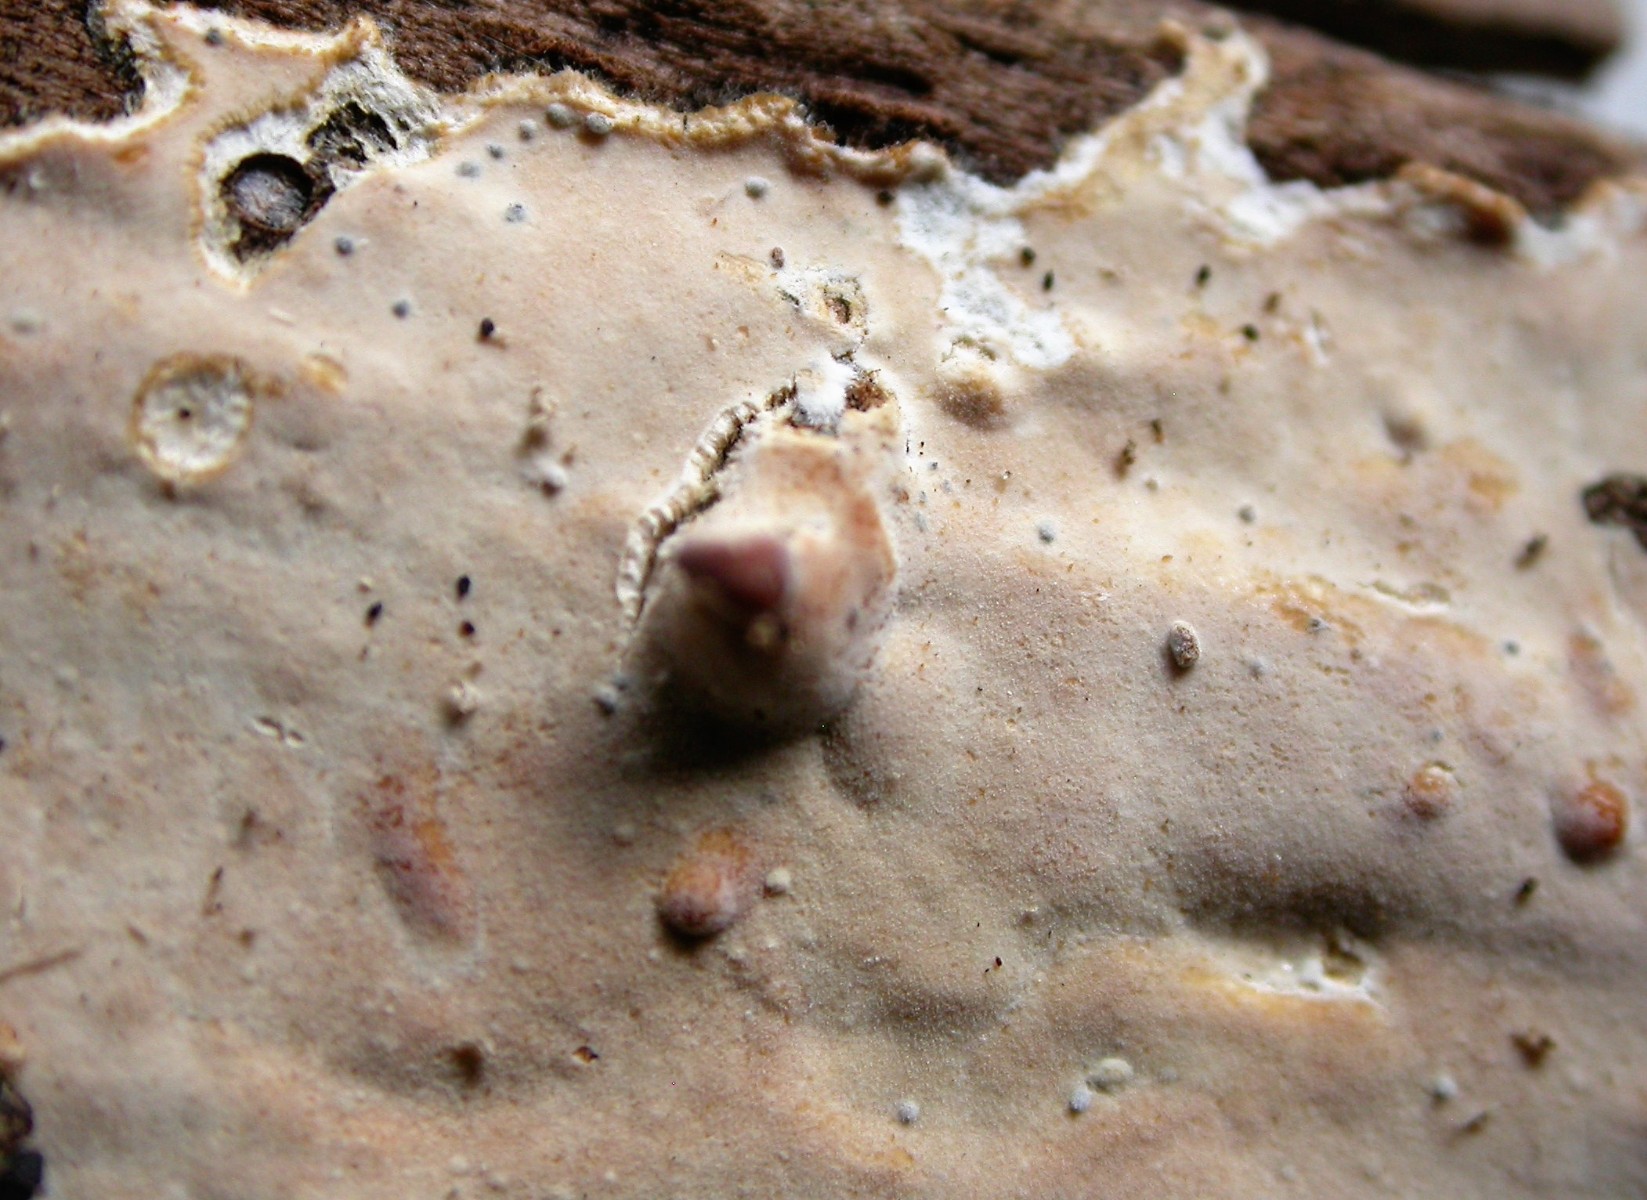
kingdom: Fungi
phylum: Basidiomycota
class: Agaricomycetes
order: Polyporales
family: Phanerochaetaceae
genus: Phanerochaete
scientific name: Phanerochaete sordida
